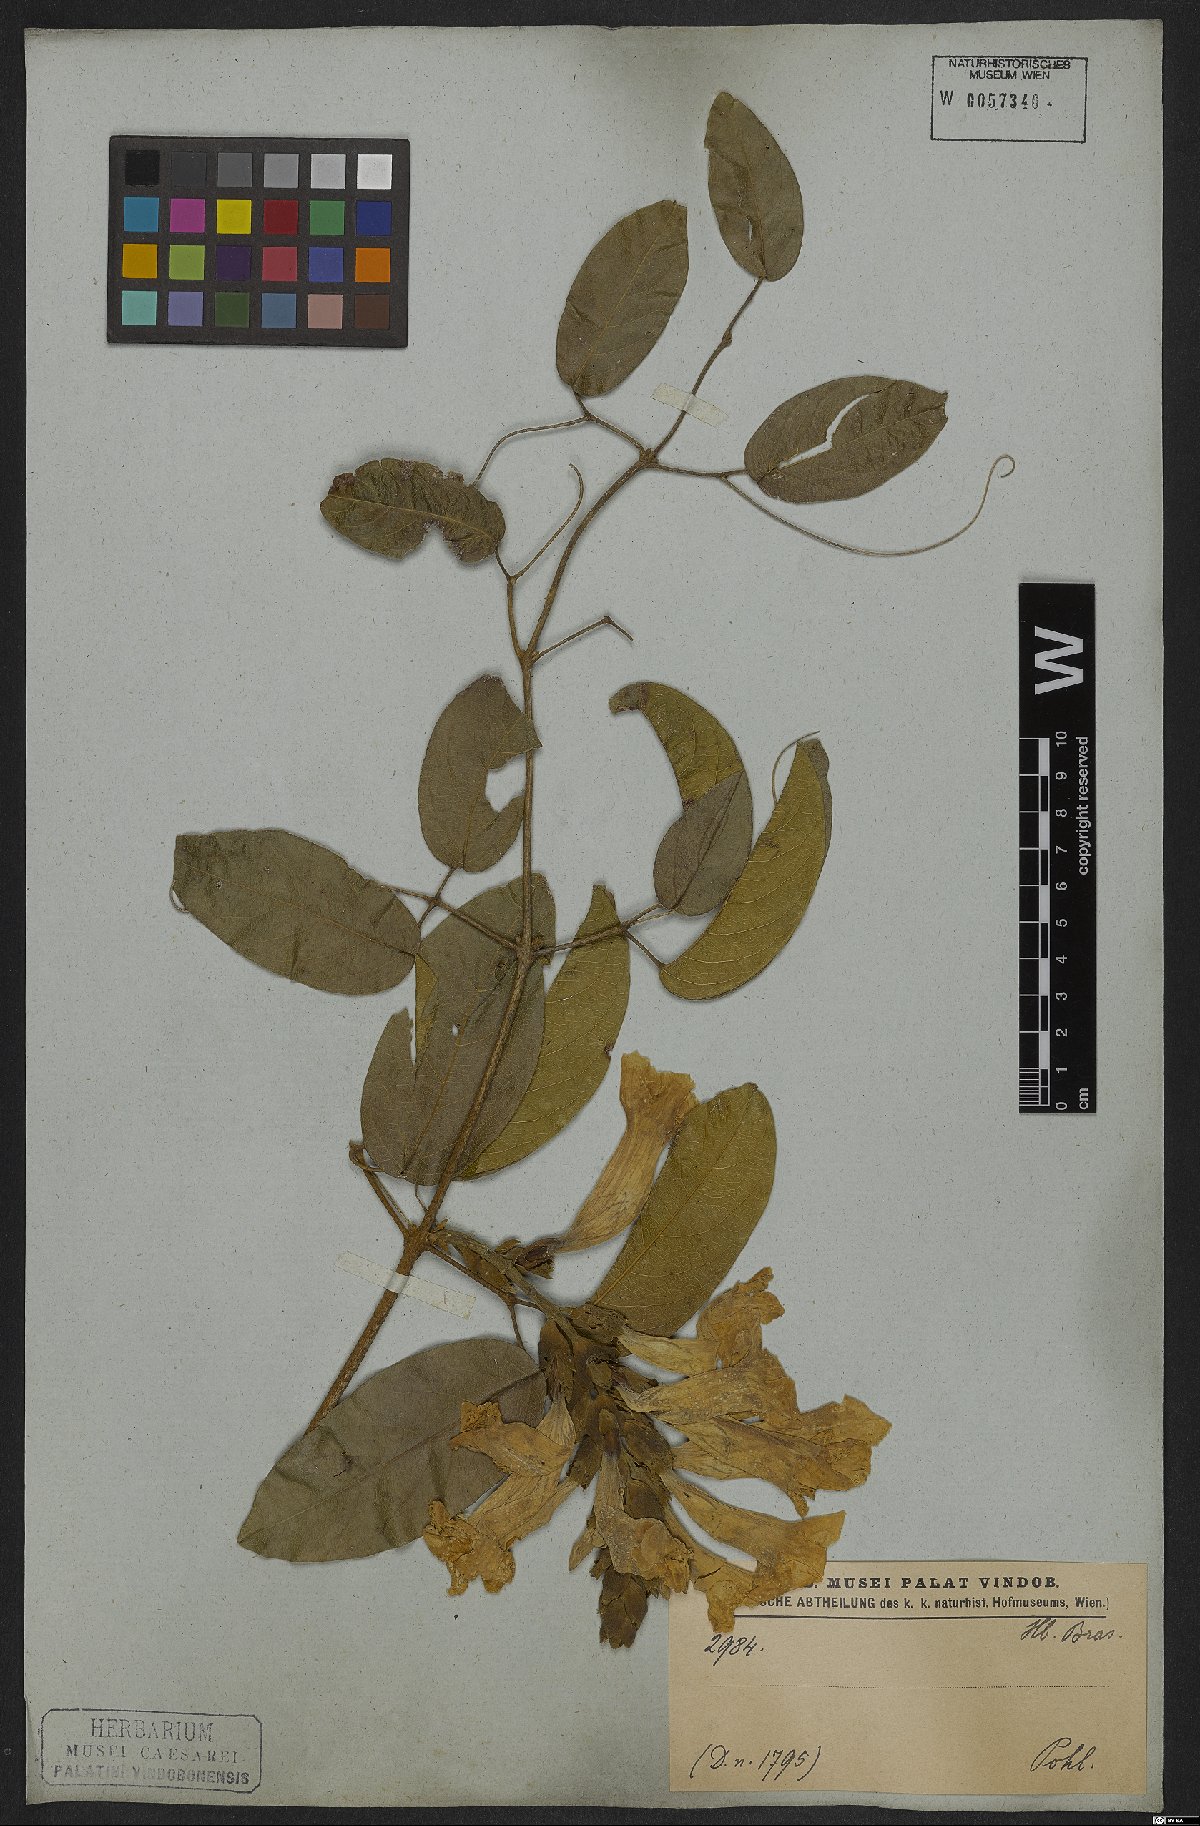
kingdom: Plantae
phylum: Tracheophyta
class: Magnoliopsida
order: Lamiales
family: Bignoniaceae
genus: Adenocalymma
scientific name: Adenocalymma bracteatum
